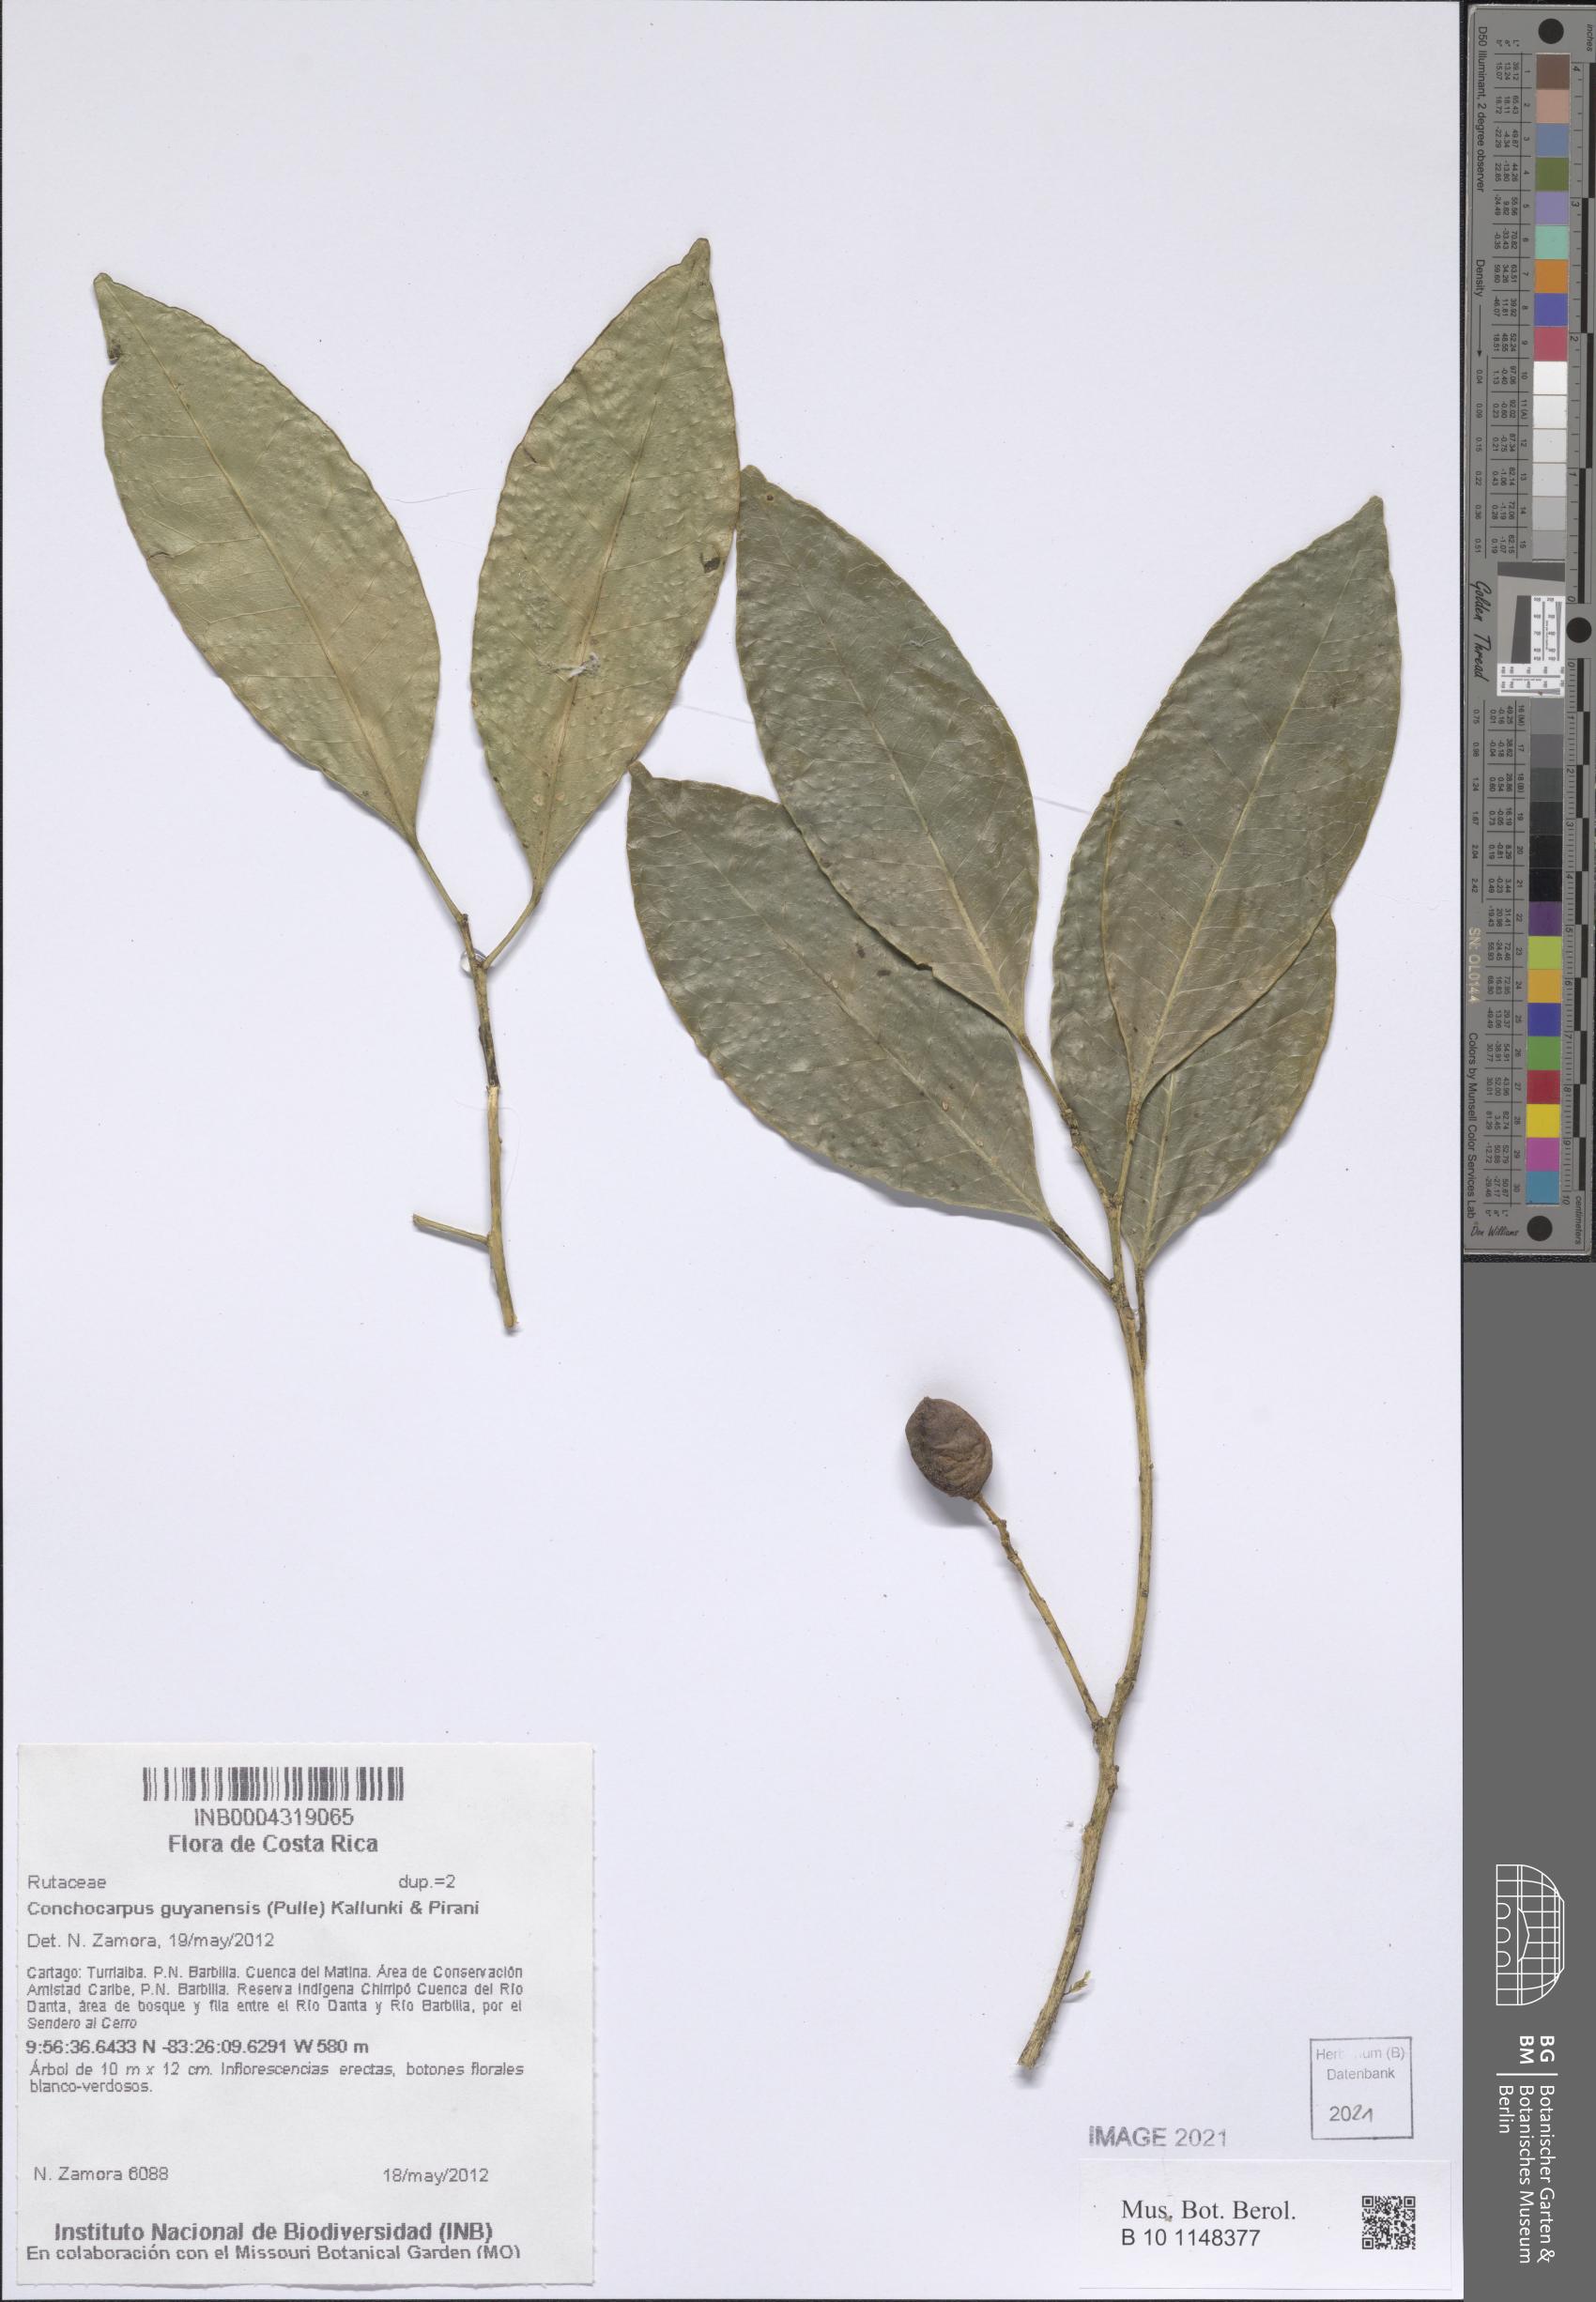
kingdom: Plantae
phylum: Tracheophyta
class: Magnoliopsida
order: Sapindales
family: Rutaceae
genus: Conchocarpus
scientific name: Conchocarpus guyanensis
